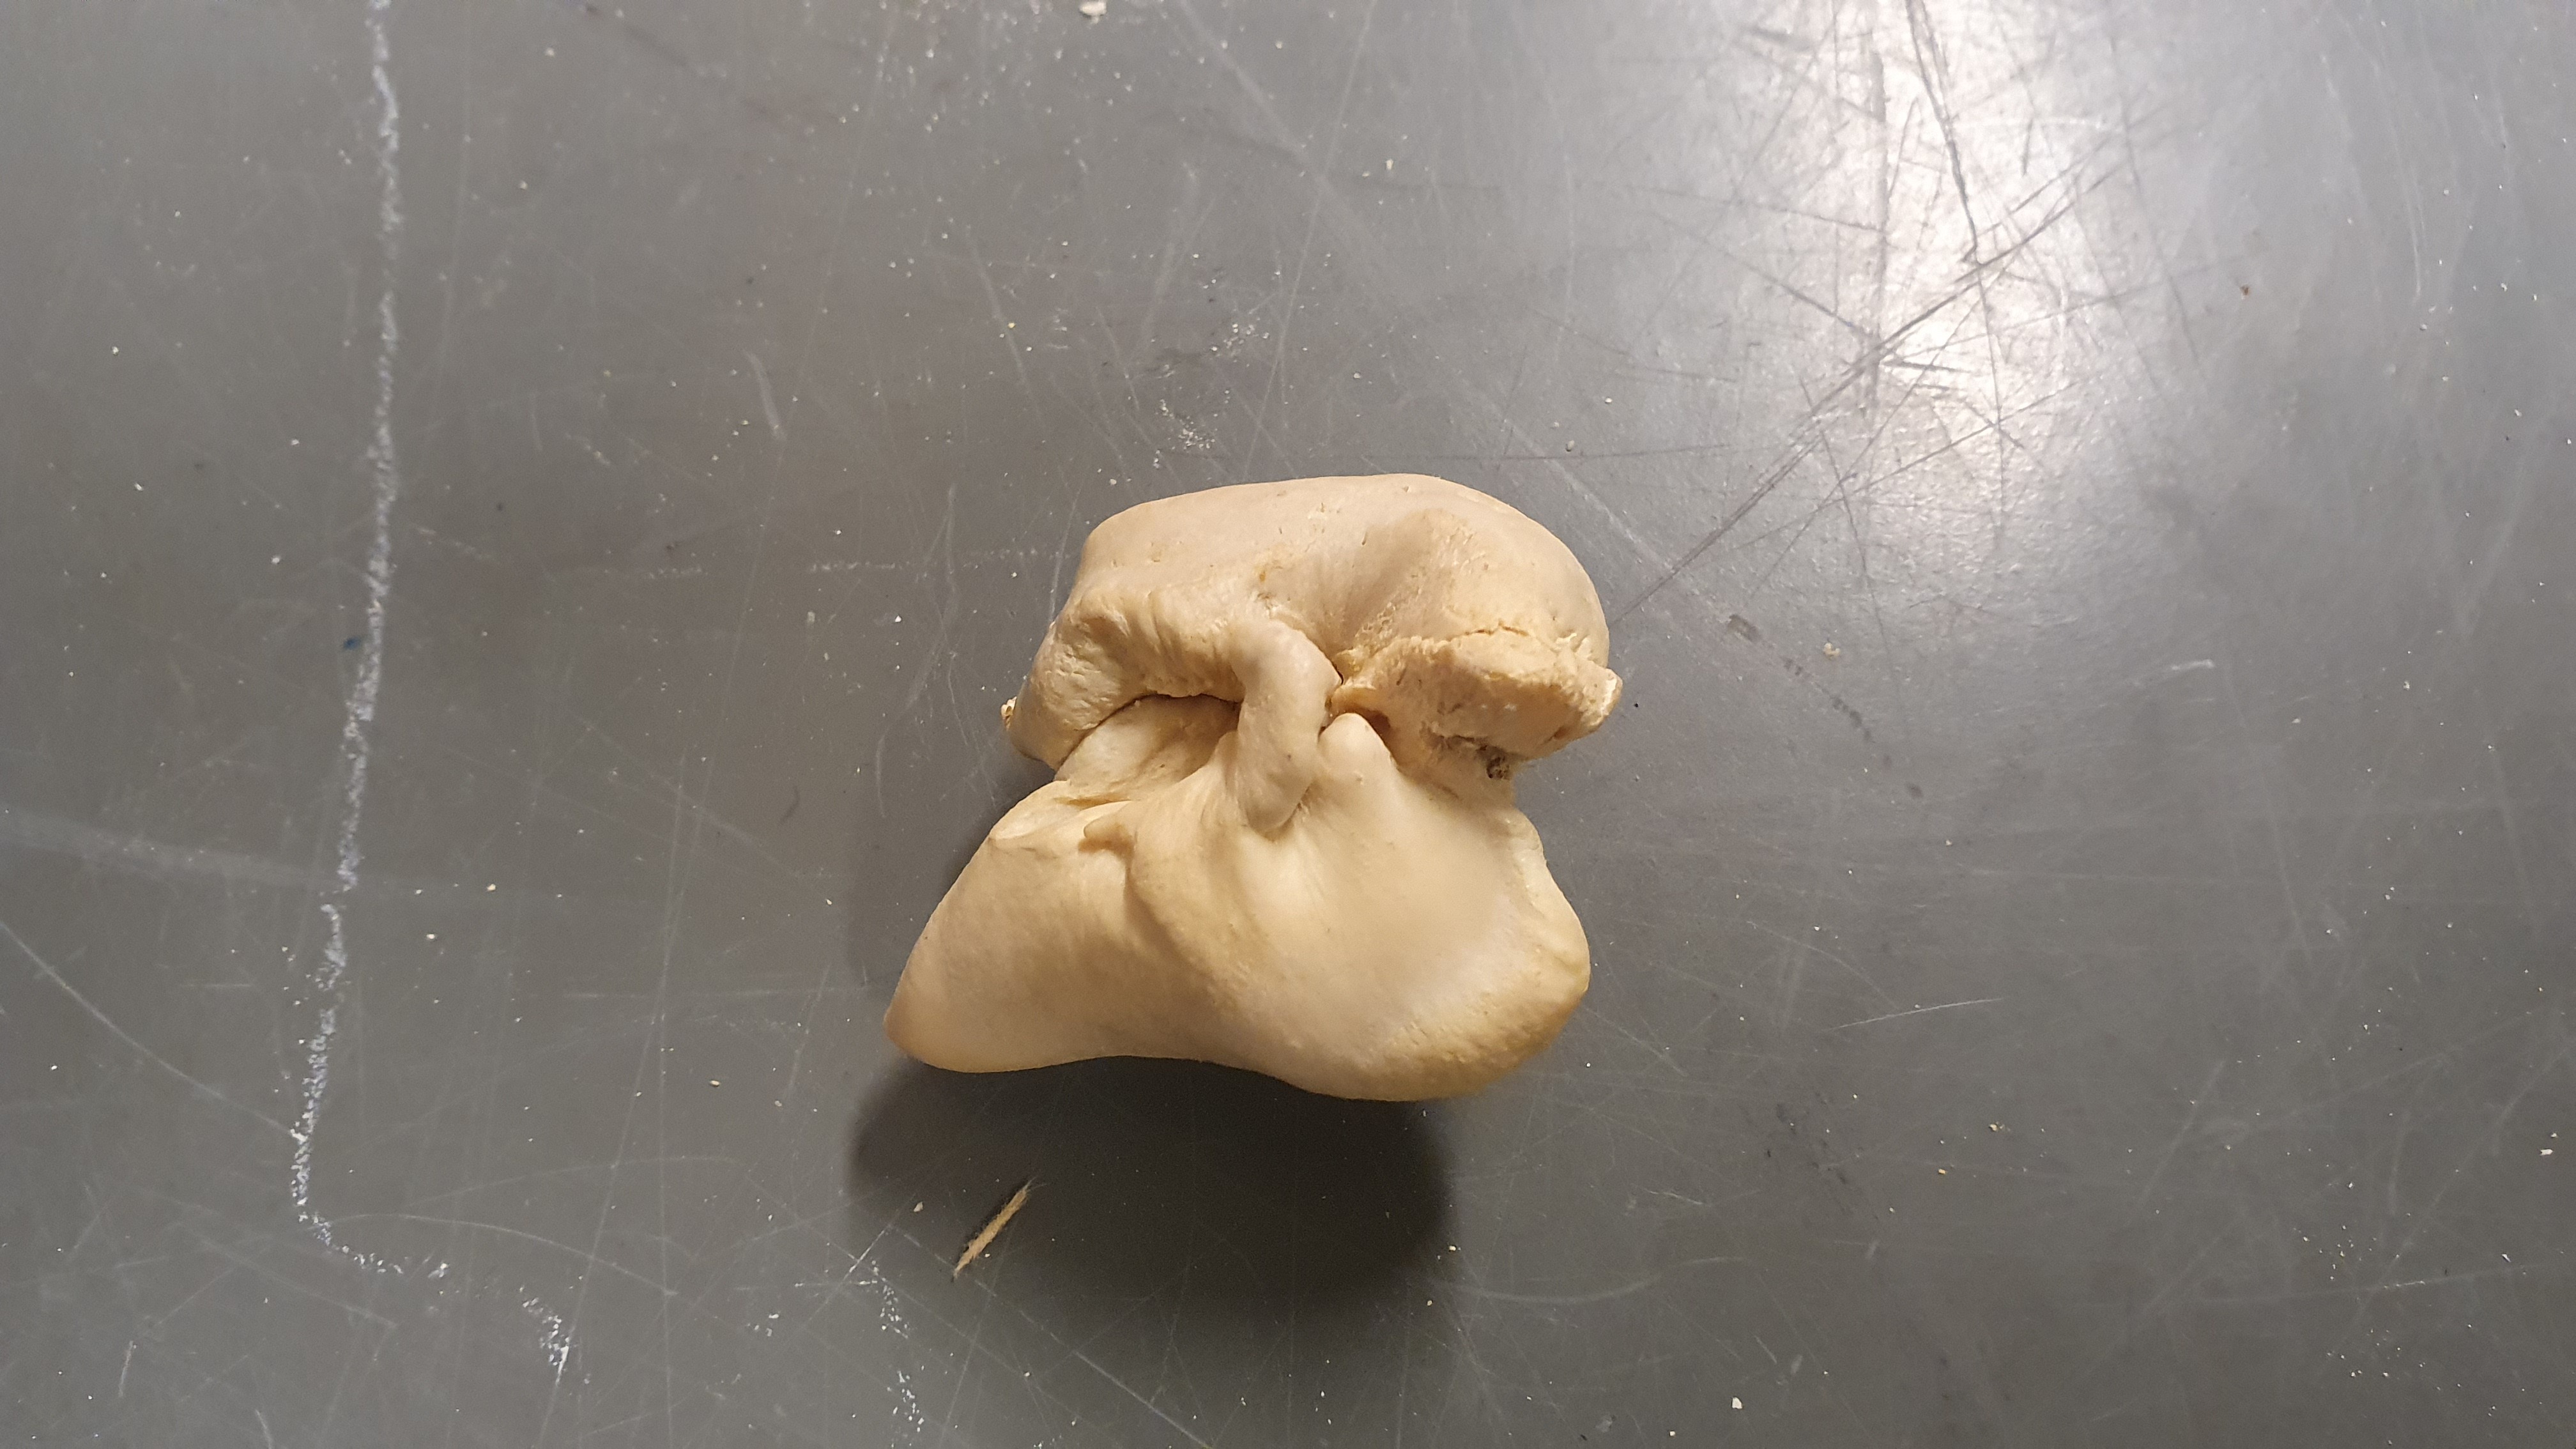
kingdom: Animalia
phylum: Chordata
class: Mammalia
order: Cetacea
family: Delphinidae
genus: Delphinus
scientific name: Delphinus
